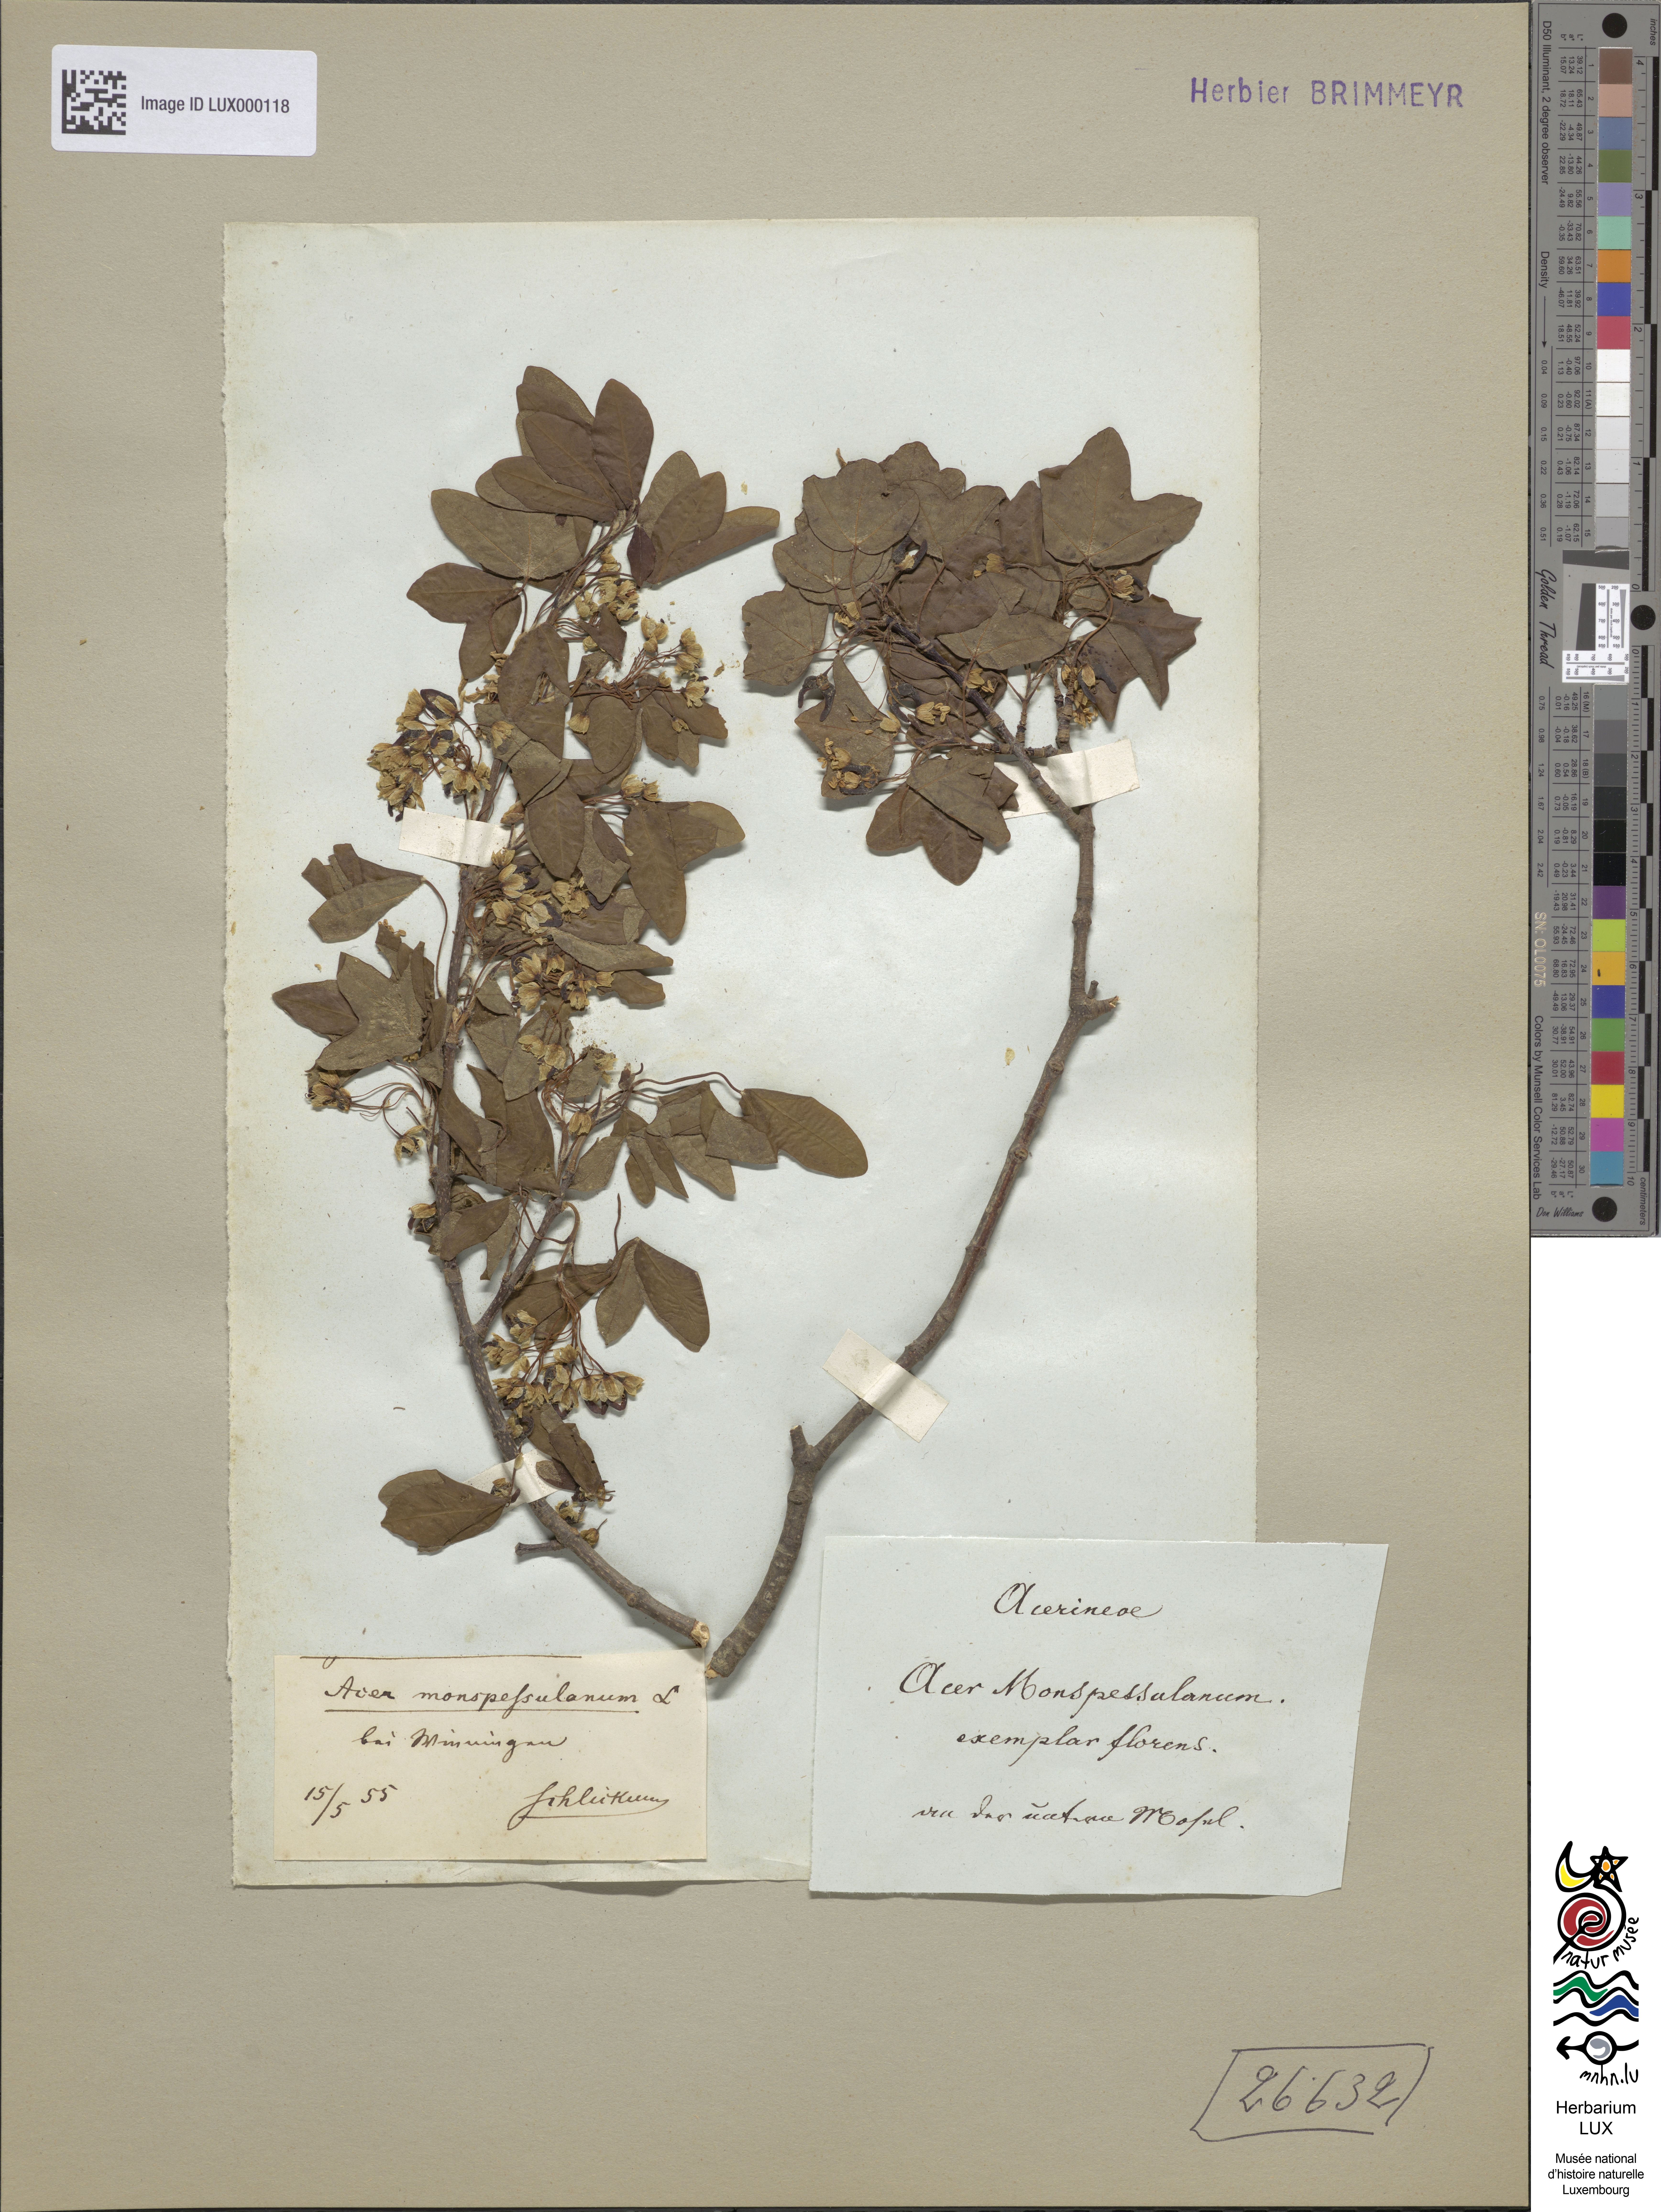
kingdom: Plantae
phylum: Tracheophyta
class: Magnoliopsida
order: Sapindales
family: Sapindaceae
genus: Acer
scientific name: Acer monspessulanum
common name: Montpellier maple
